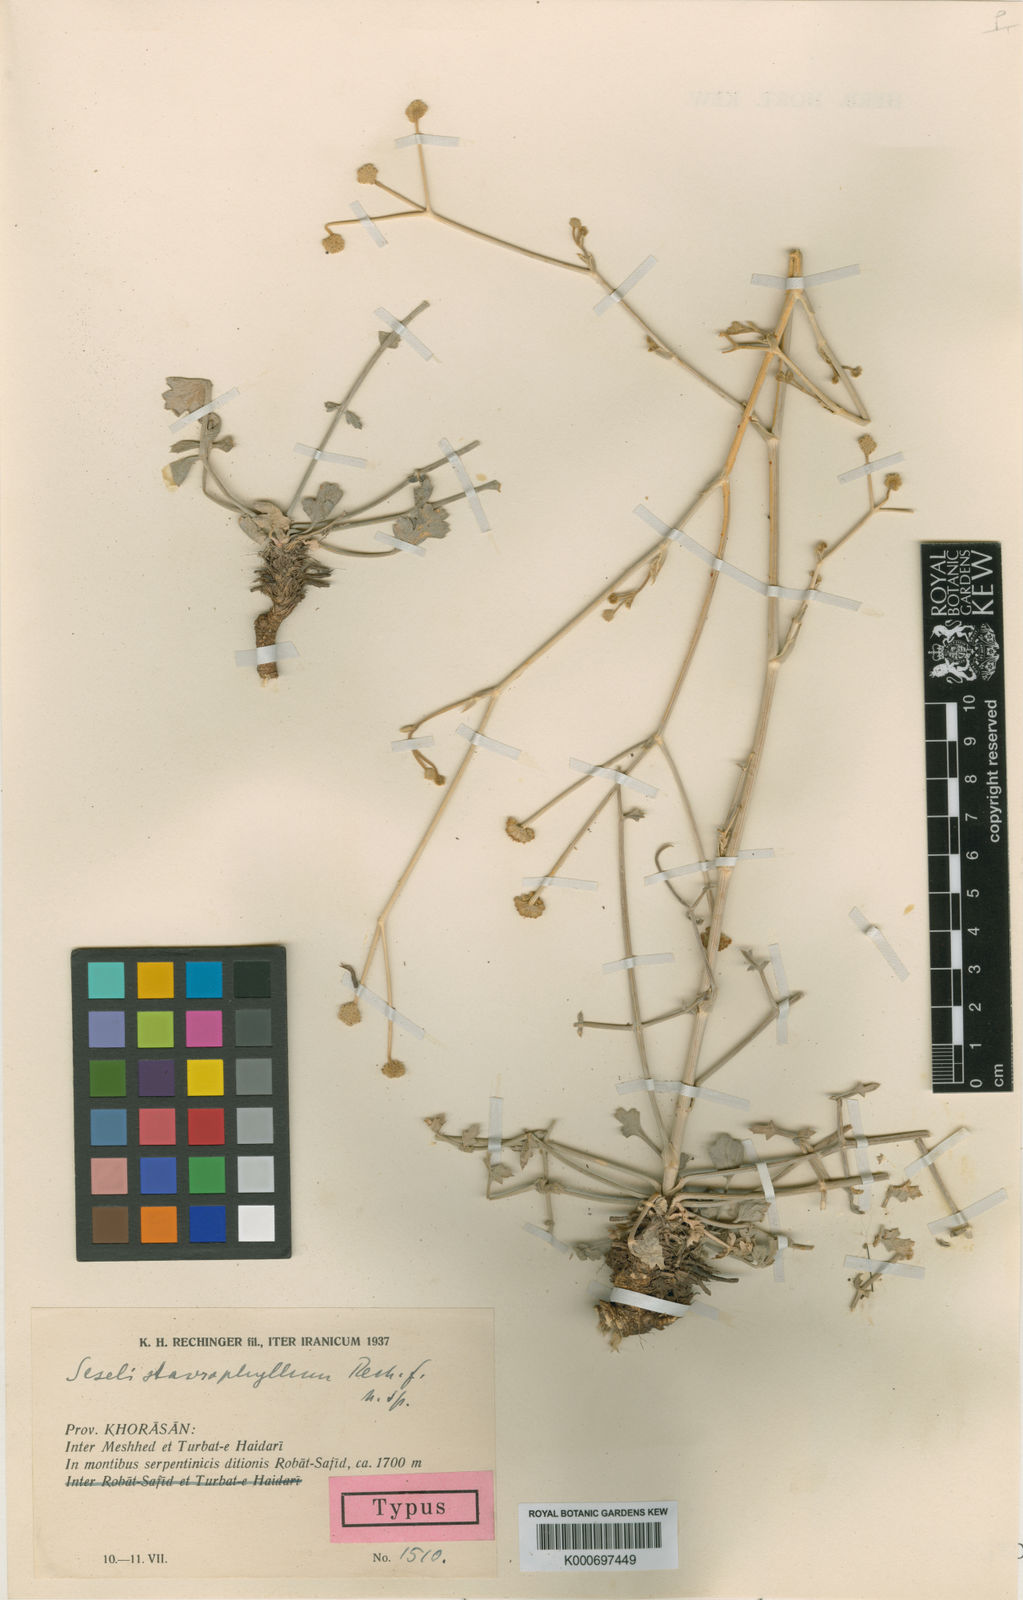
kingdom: Plantae
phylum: Tracheophyta
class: Magnoliopsida
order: Apiales
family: Apiaceae
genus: Seseli
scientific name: Seseli staurophyllum
